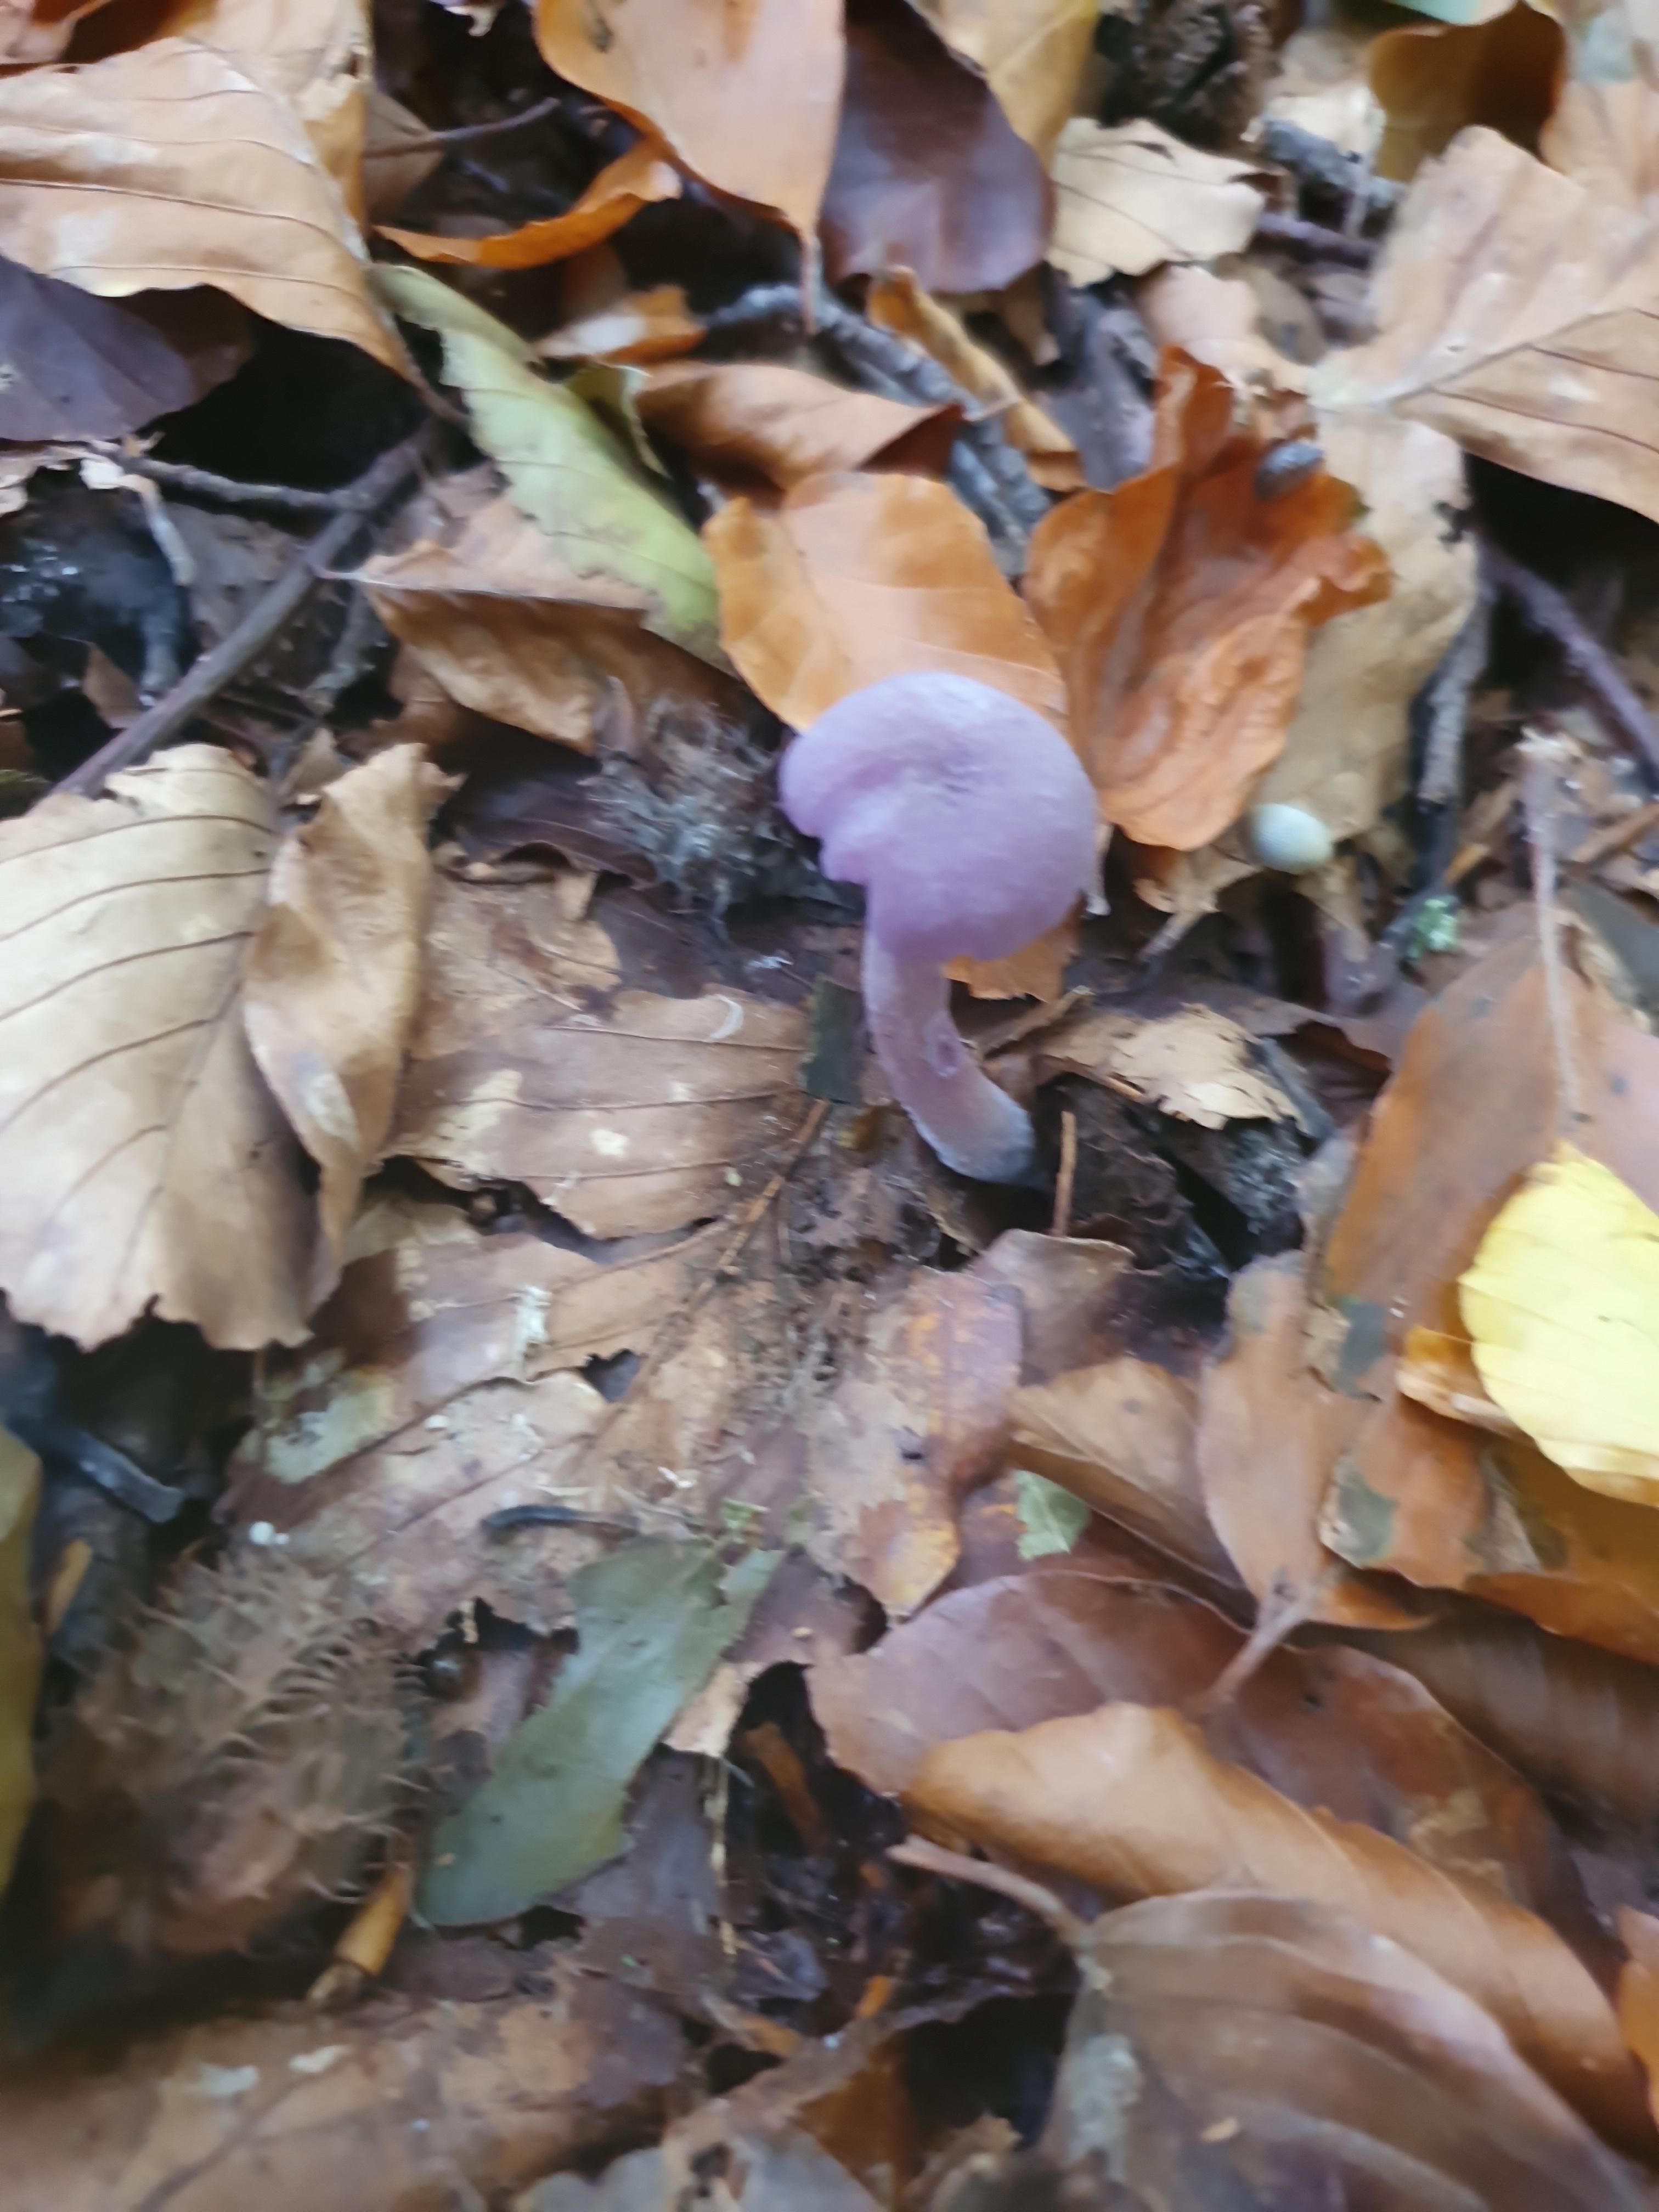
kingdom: Fungi
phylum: Basidiomycota
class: Agaricomycetes
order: Agaricales
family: Hydnangiaceae
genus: Laccaria
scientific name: Laccaria amethystina
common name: violet ametysthat
